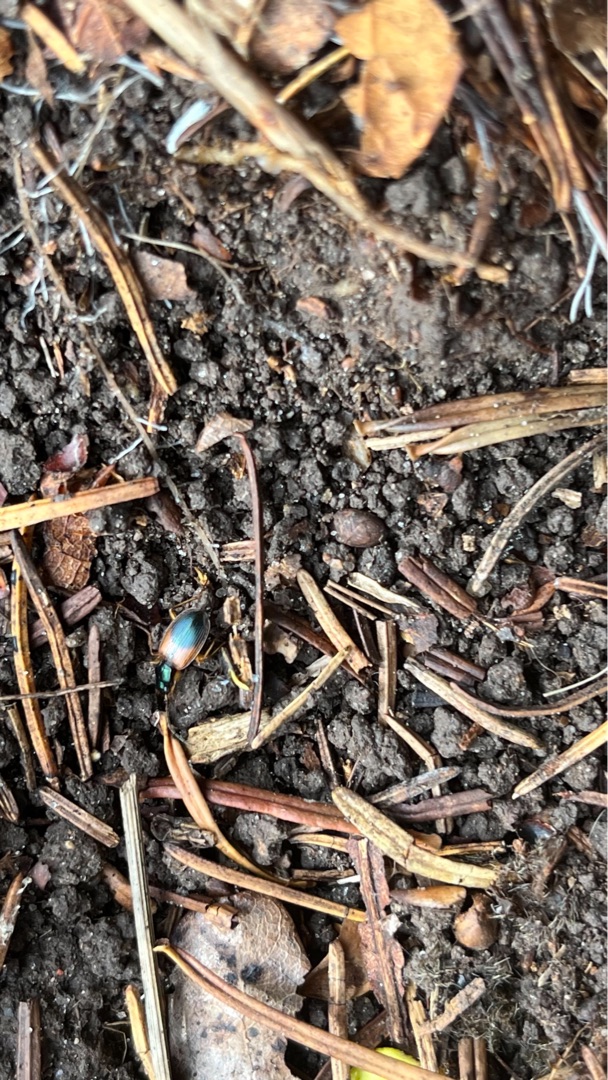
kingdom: Animalia
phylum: Arthropoda
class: Insecta
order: Coleoptera
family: Carabidae
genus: Anchomenus
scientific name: Anchomenus dorsalis
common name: Spraglet kvikløber
